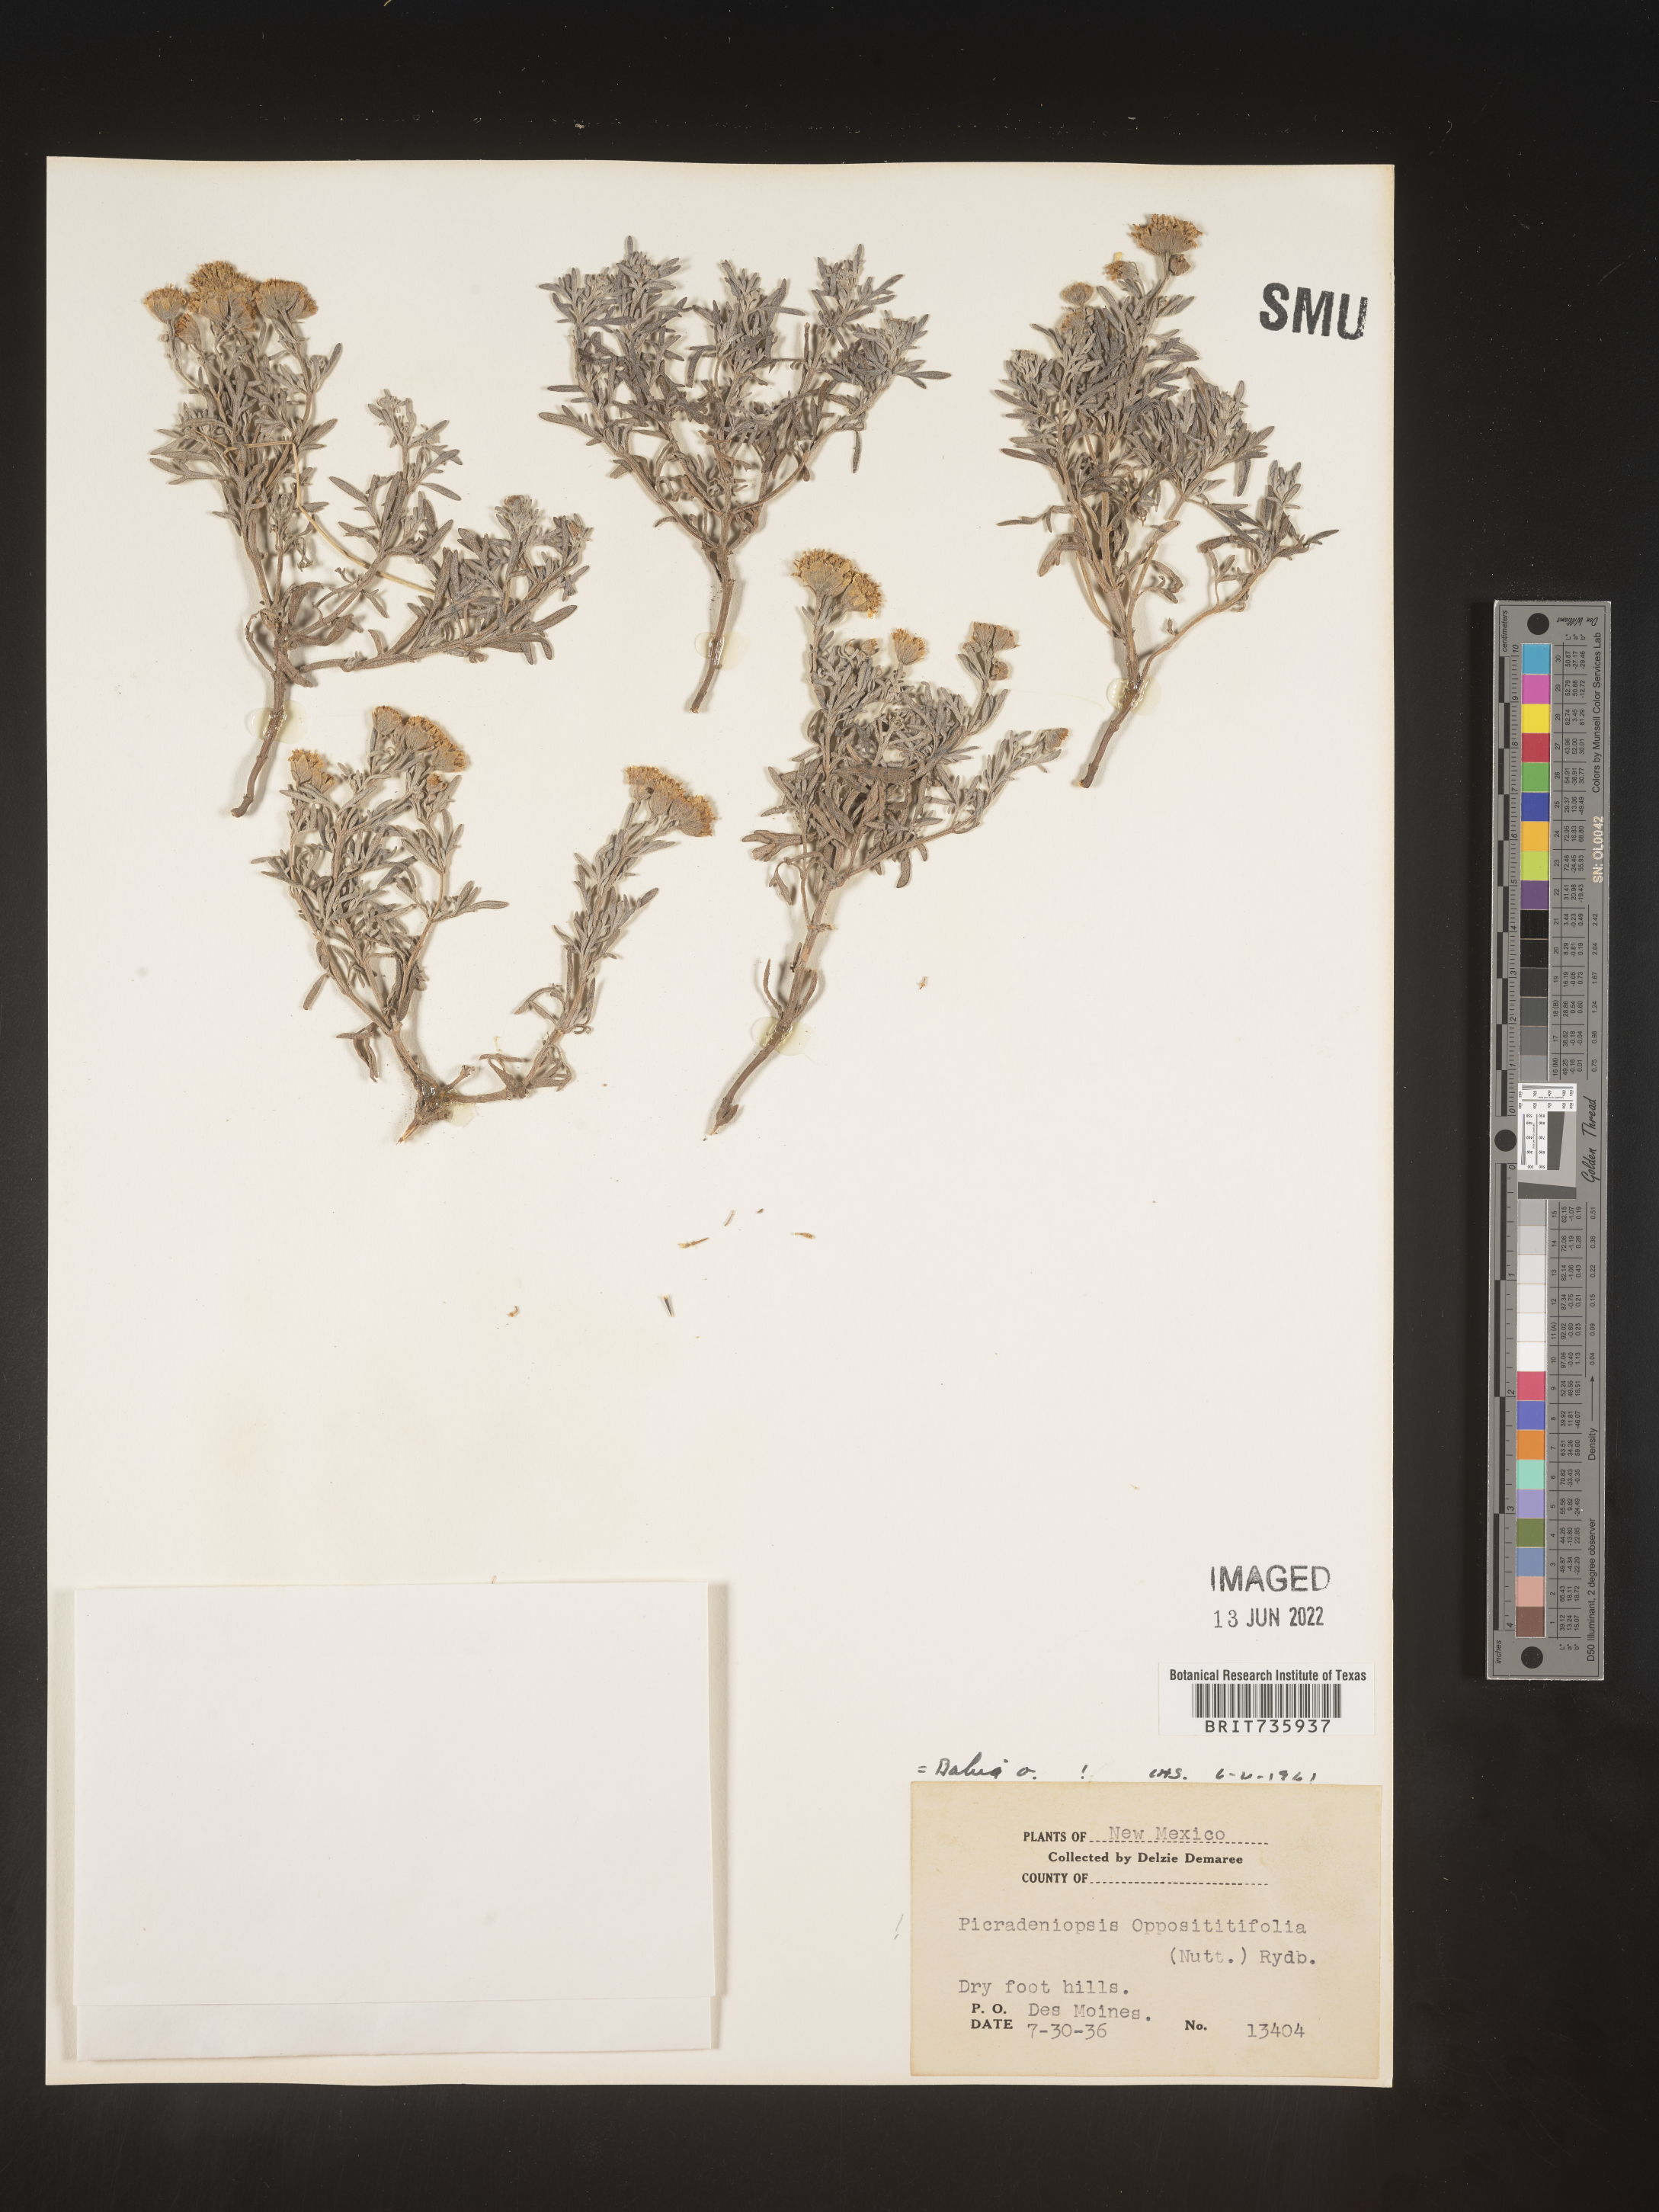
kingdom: Plantae
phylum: Tracheophyta
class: Magnoliopsida
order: Asterales
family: Asteraceae
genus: Bahia
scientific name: Bahia oppositifolia
